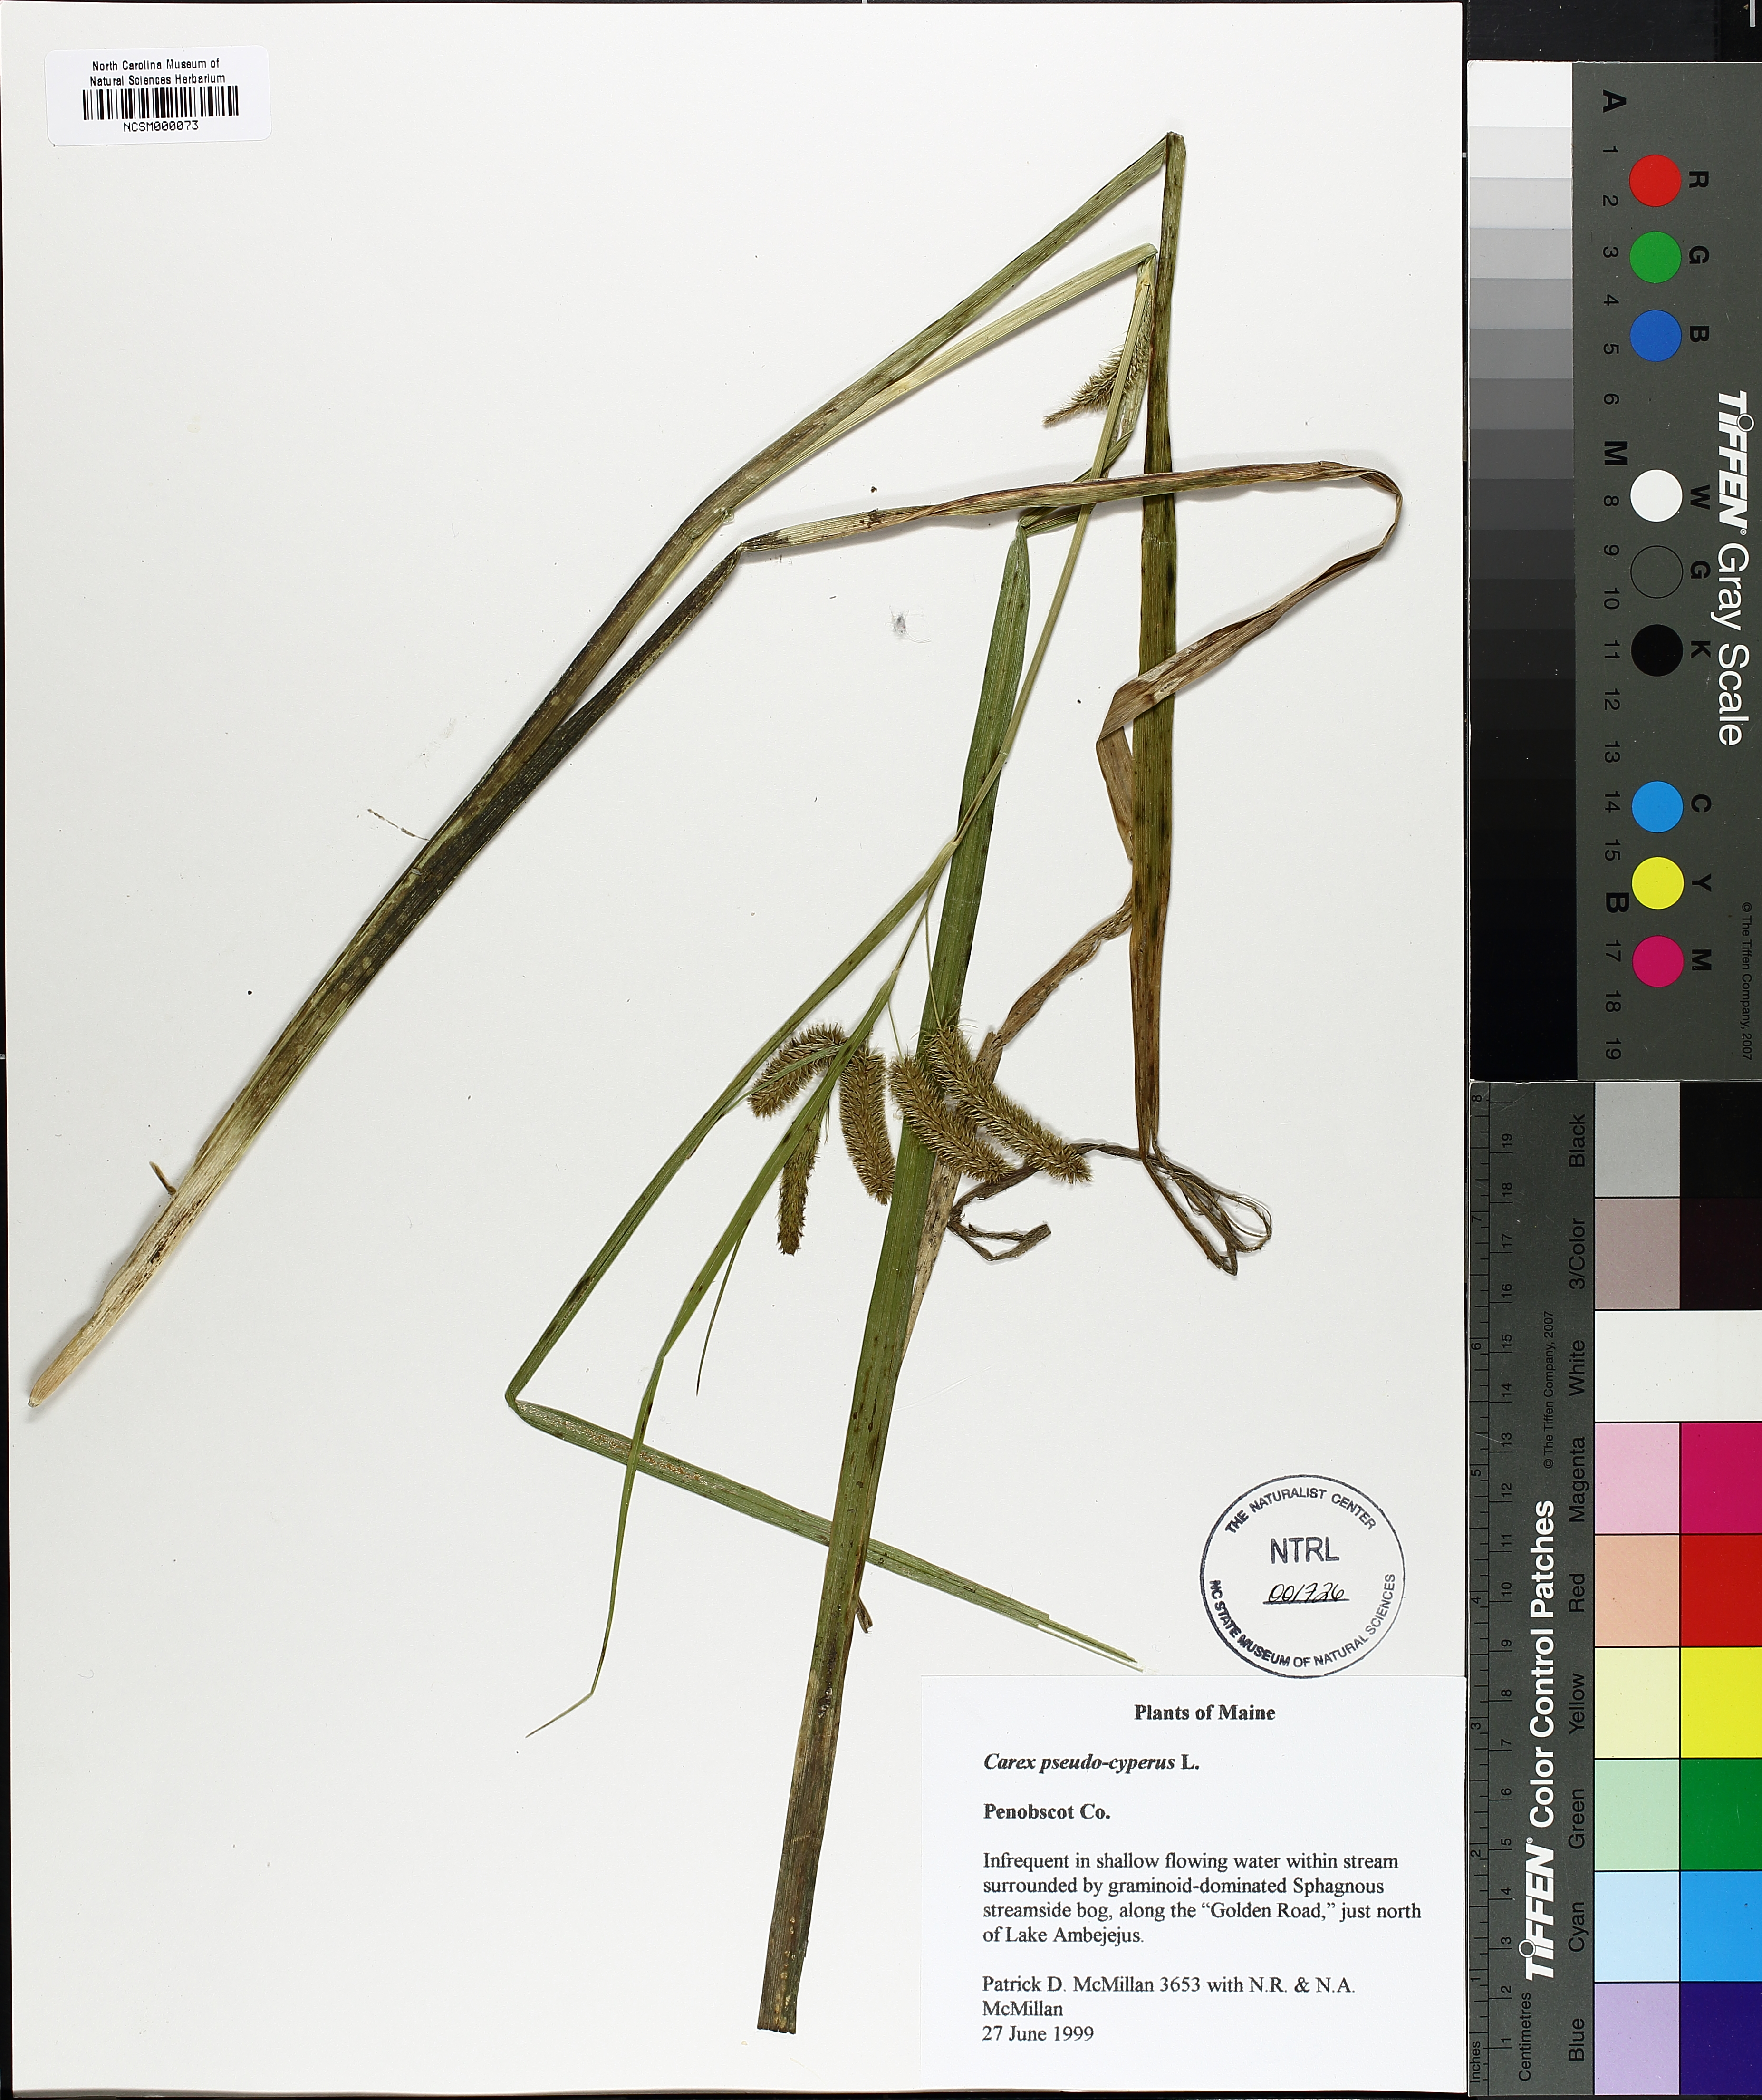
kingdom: Plantae
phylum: Tracheophyta
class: Liliopsida
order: Poales
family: Cyperaceae
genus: Carex
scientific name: Carex pseudocyperus
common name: Cyperus sedge
